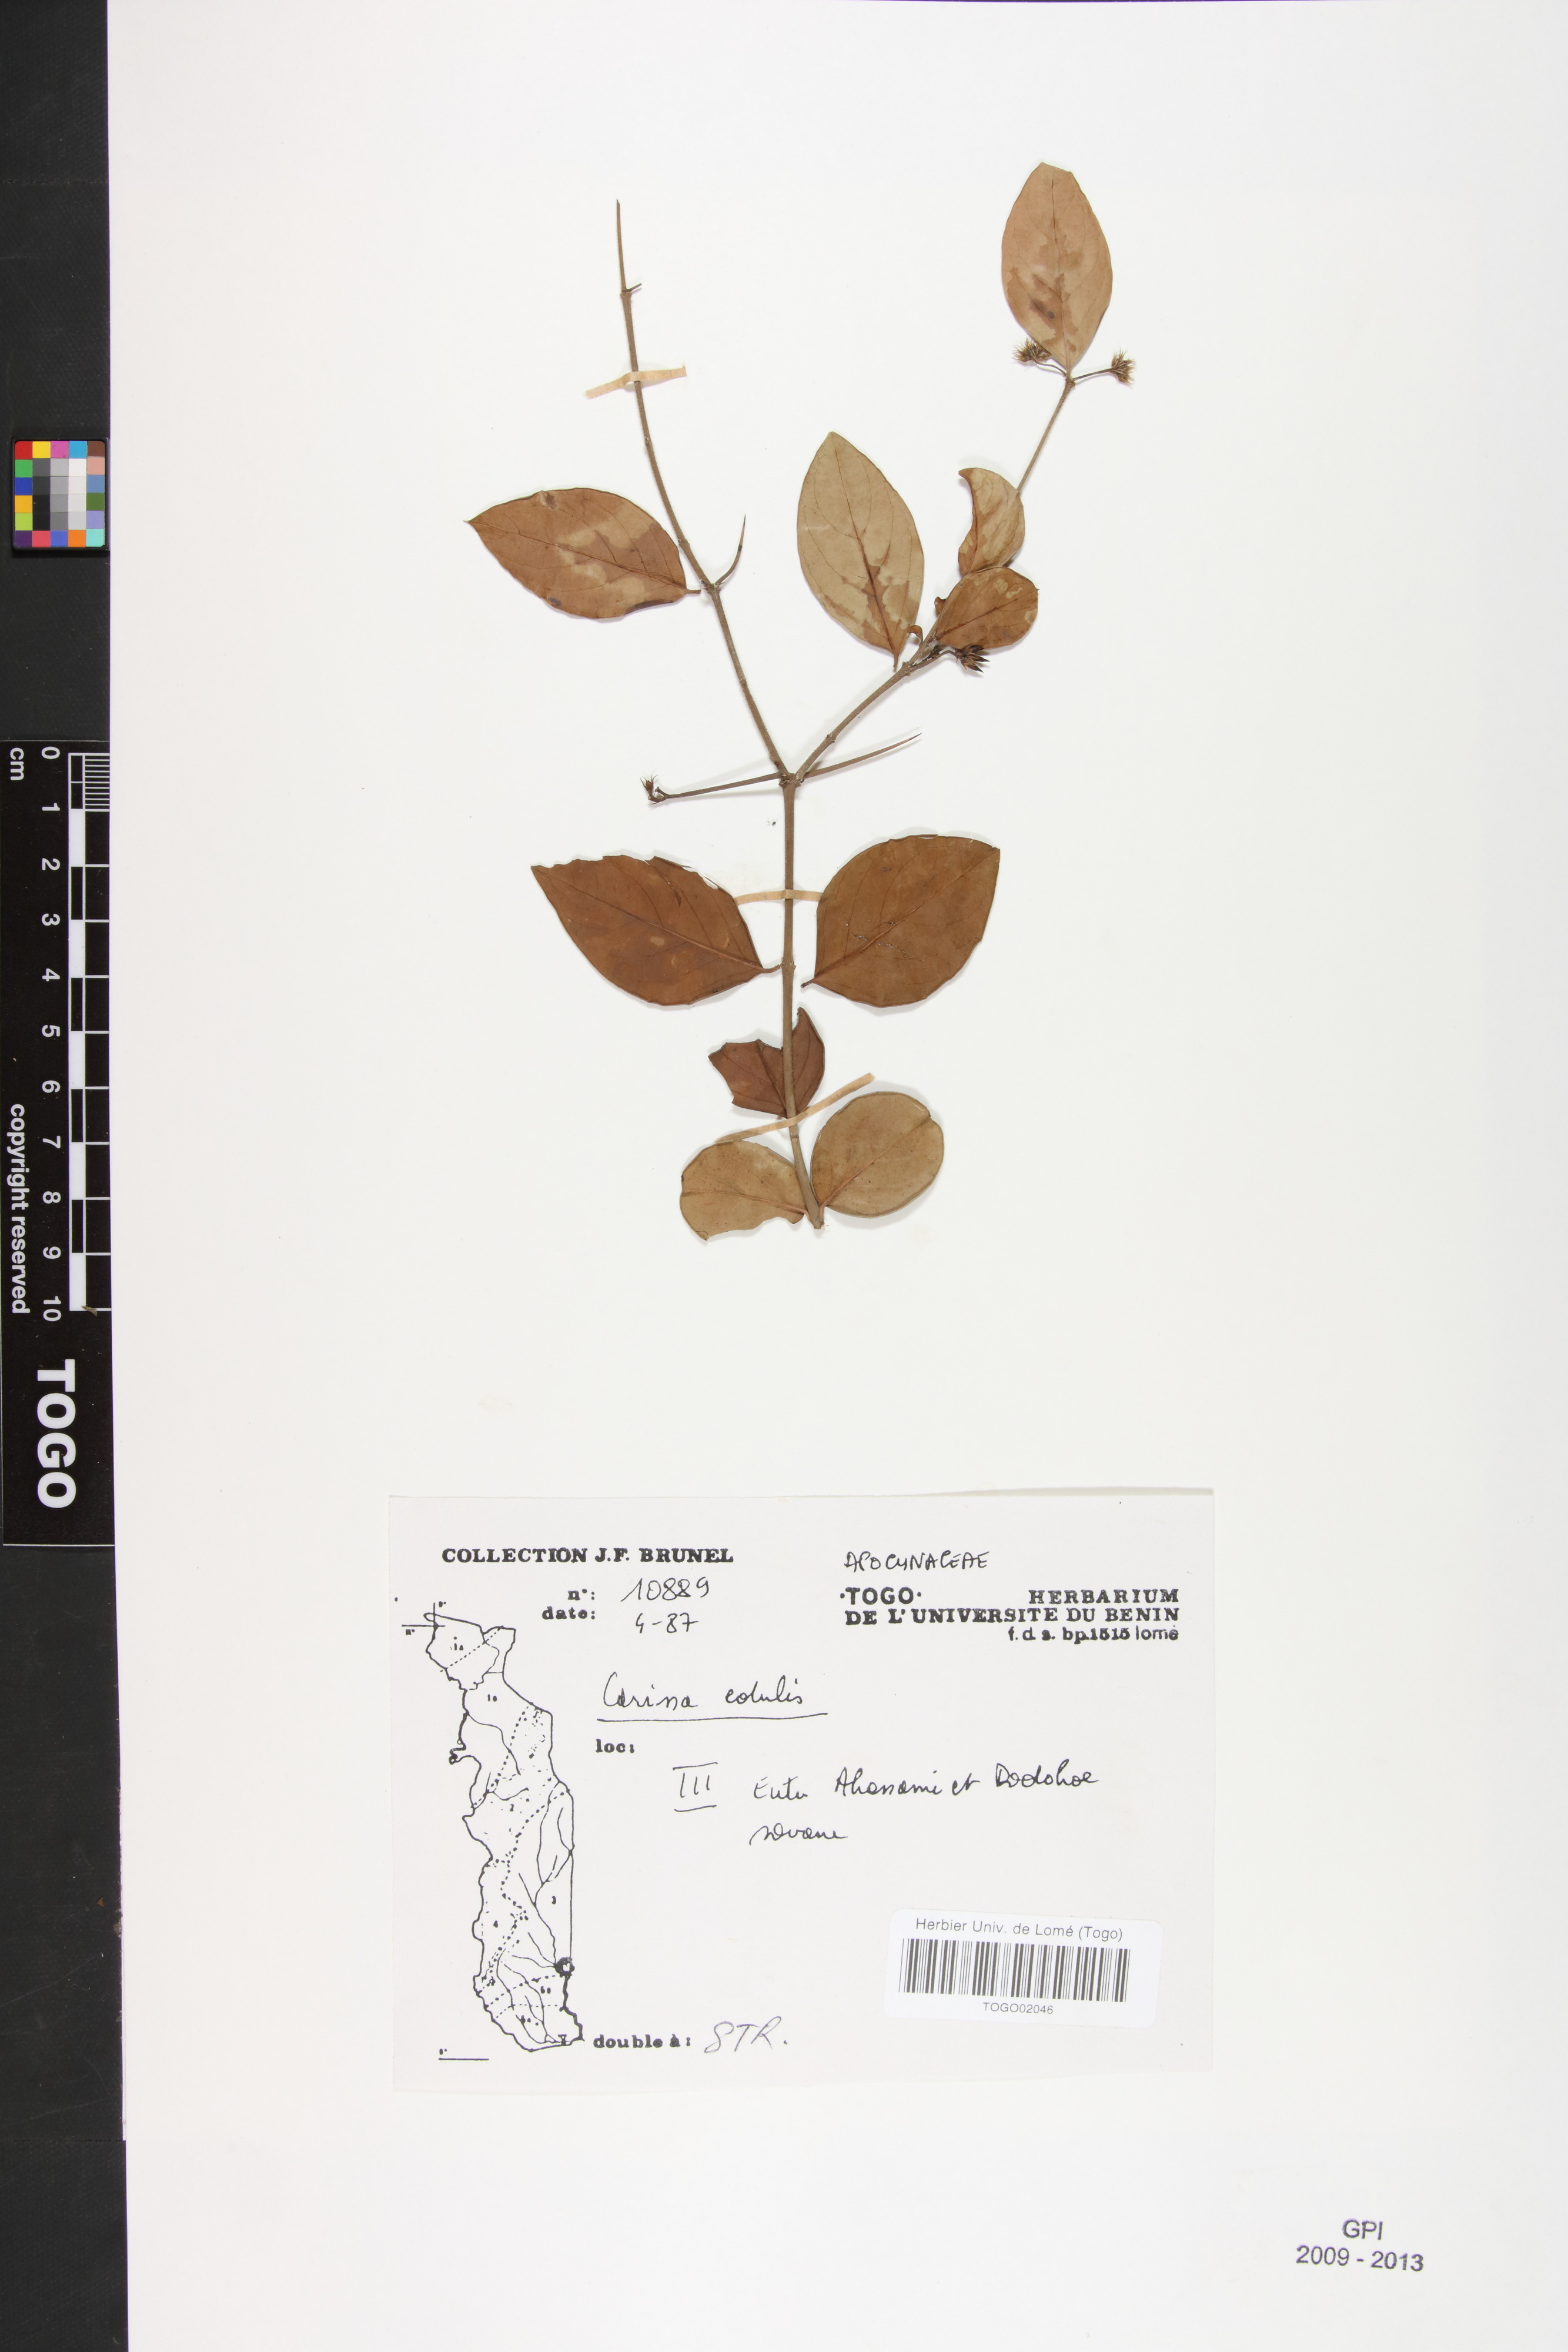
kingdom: Plantae
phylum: Tracheophyta
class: Magnoliopsida
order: Gentianales
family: Apocynaceae
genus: Carissa
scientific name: Carissa spinarum
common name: Egyptian carissa
